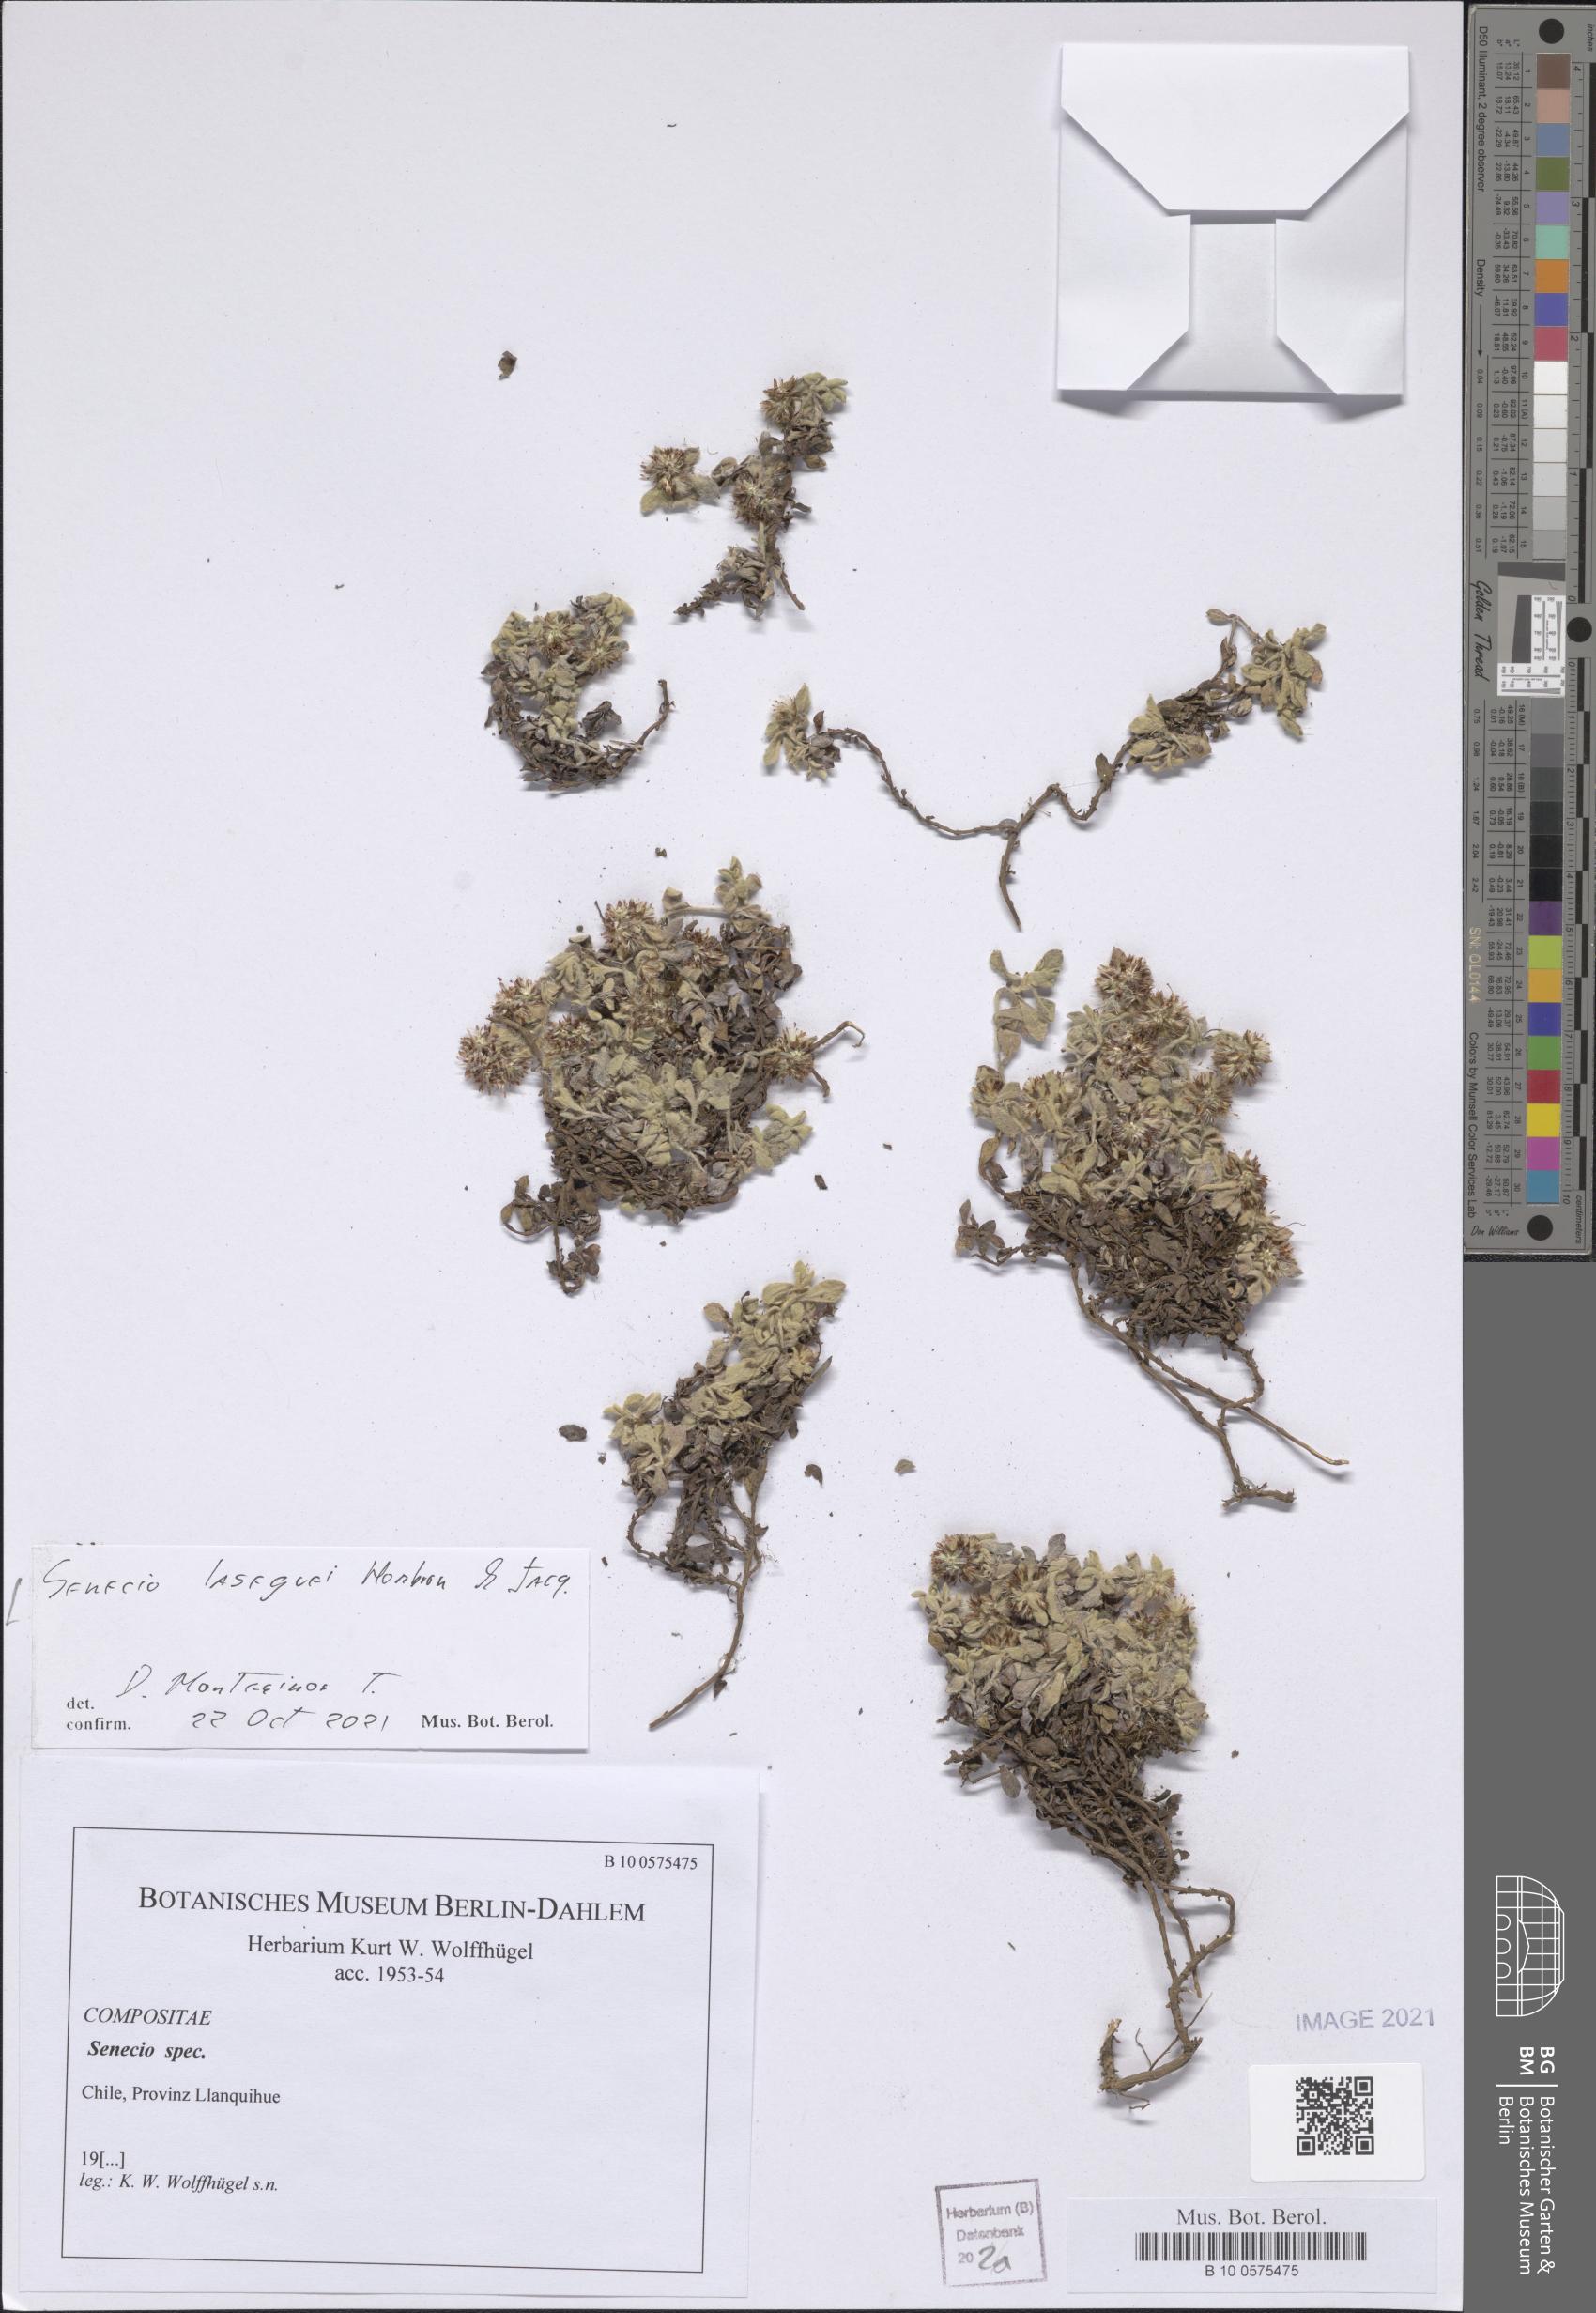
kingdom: Plantae
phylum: Tracheophyta
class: Magnoliopsida
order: Asterales
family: Asteraceae
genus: Senecio
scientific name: Senecio laseguei
